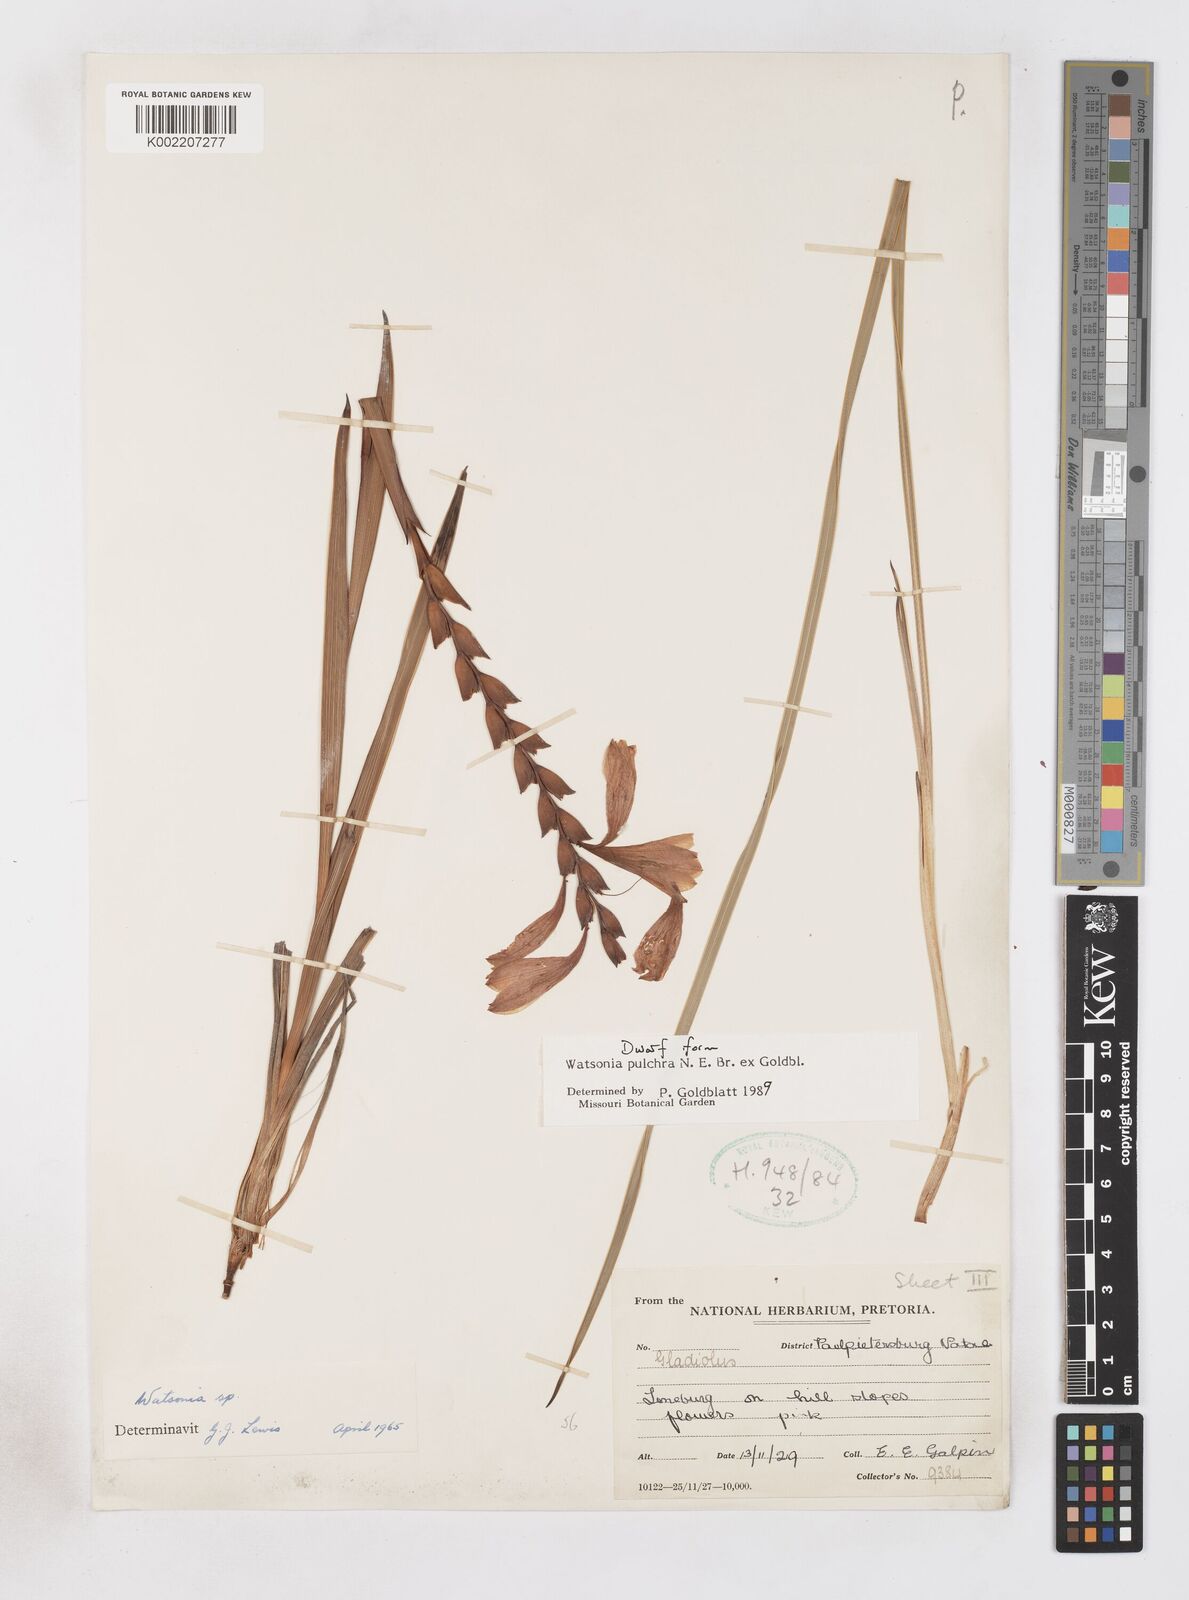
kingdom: Plantae
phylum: Tracheophyta
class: Liliopsida
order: Asparagales
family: Iridaceae
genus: Watsonia
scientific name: Watsonia pulchra
